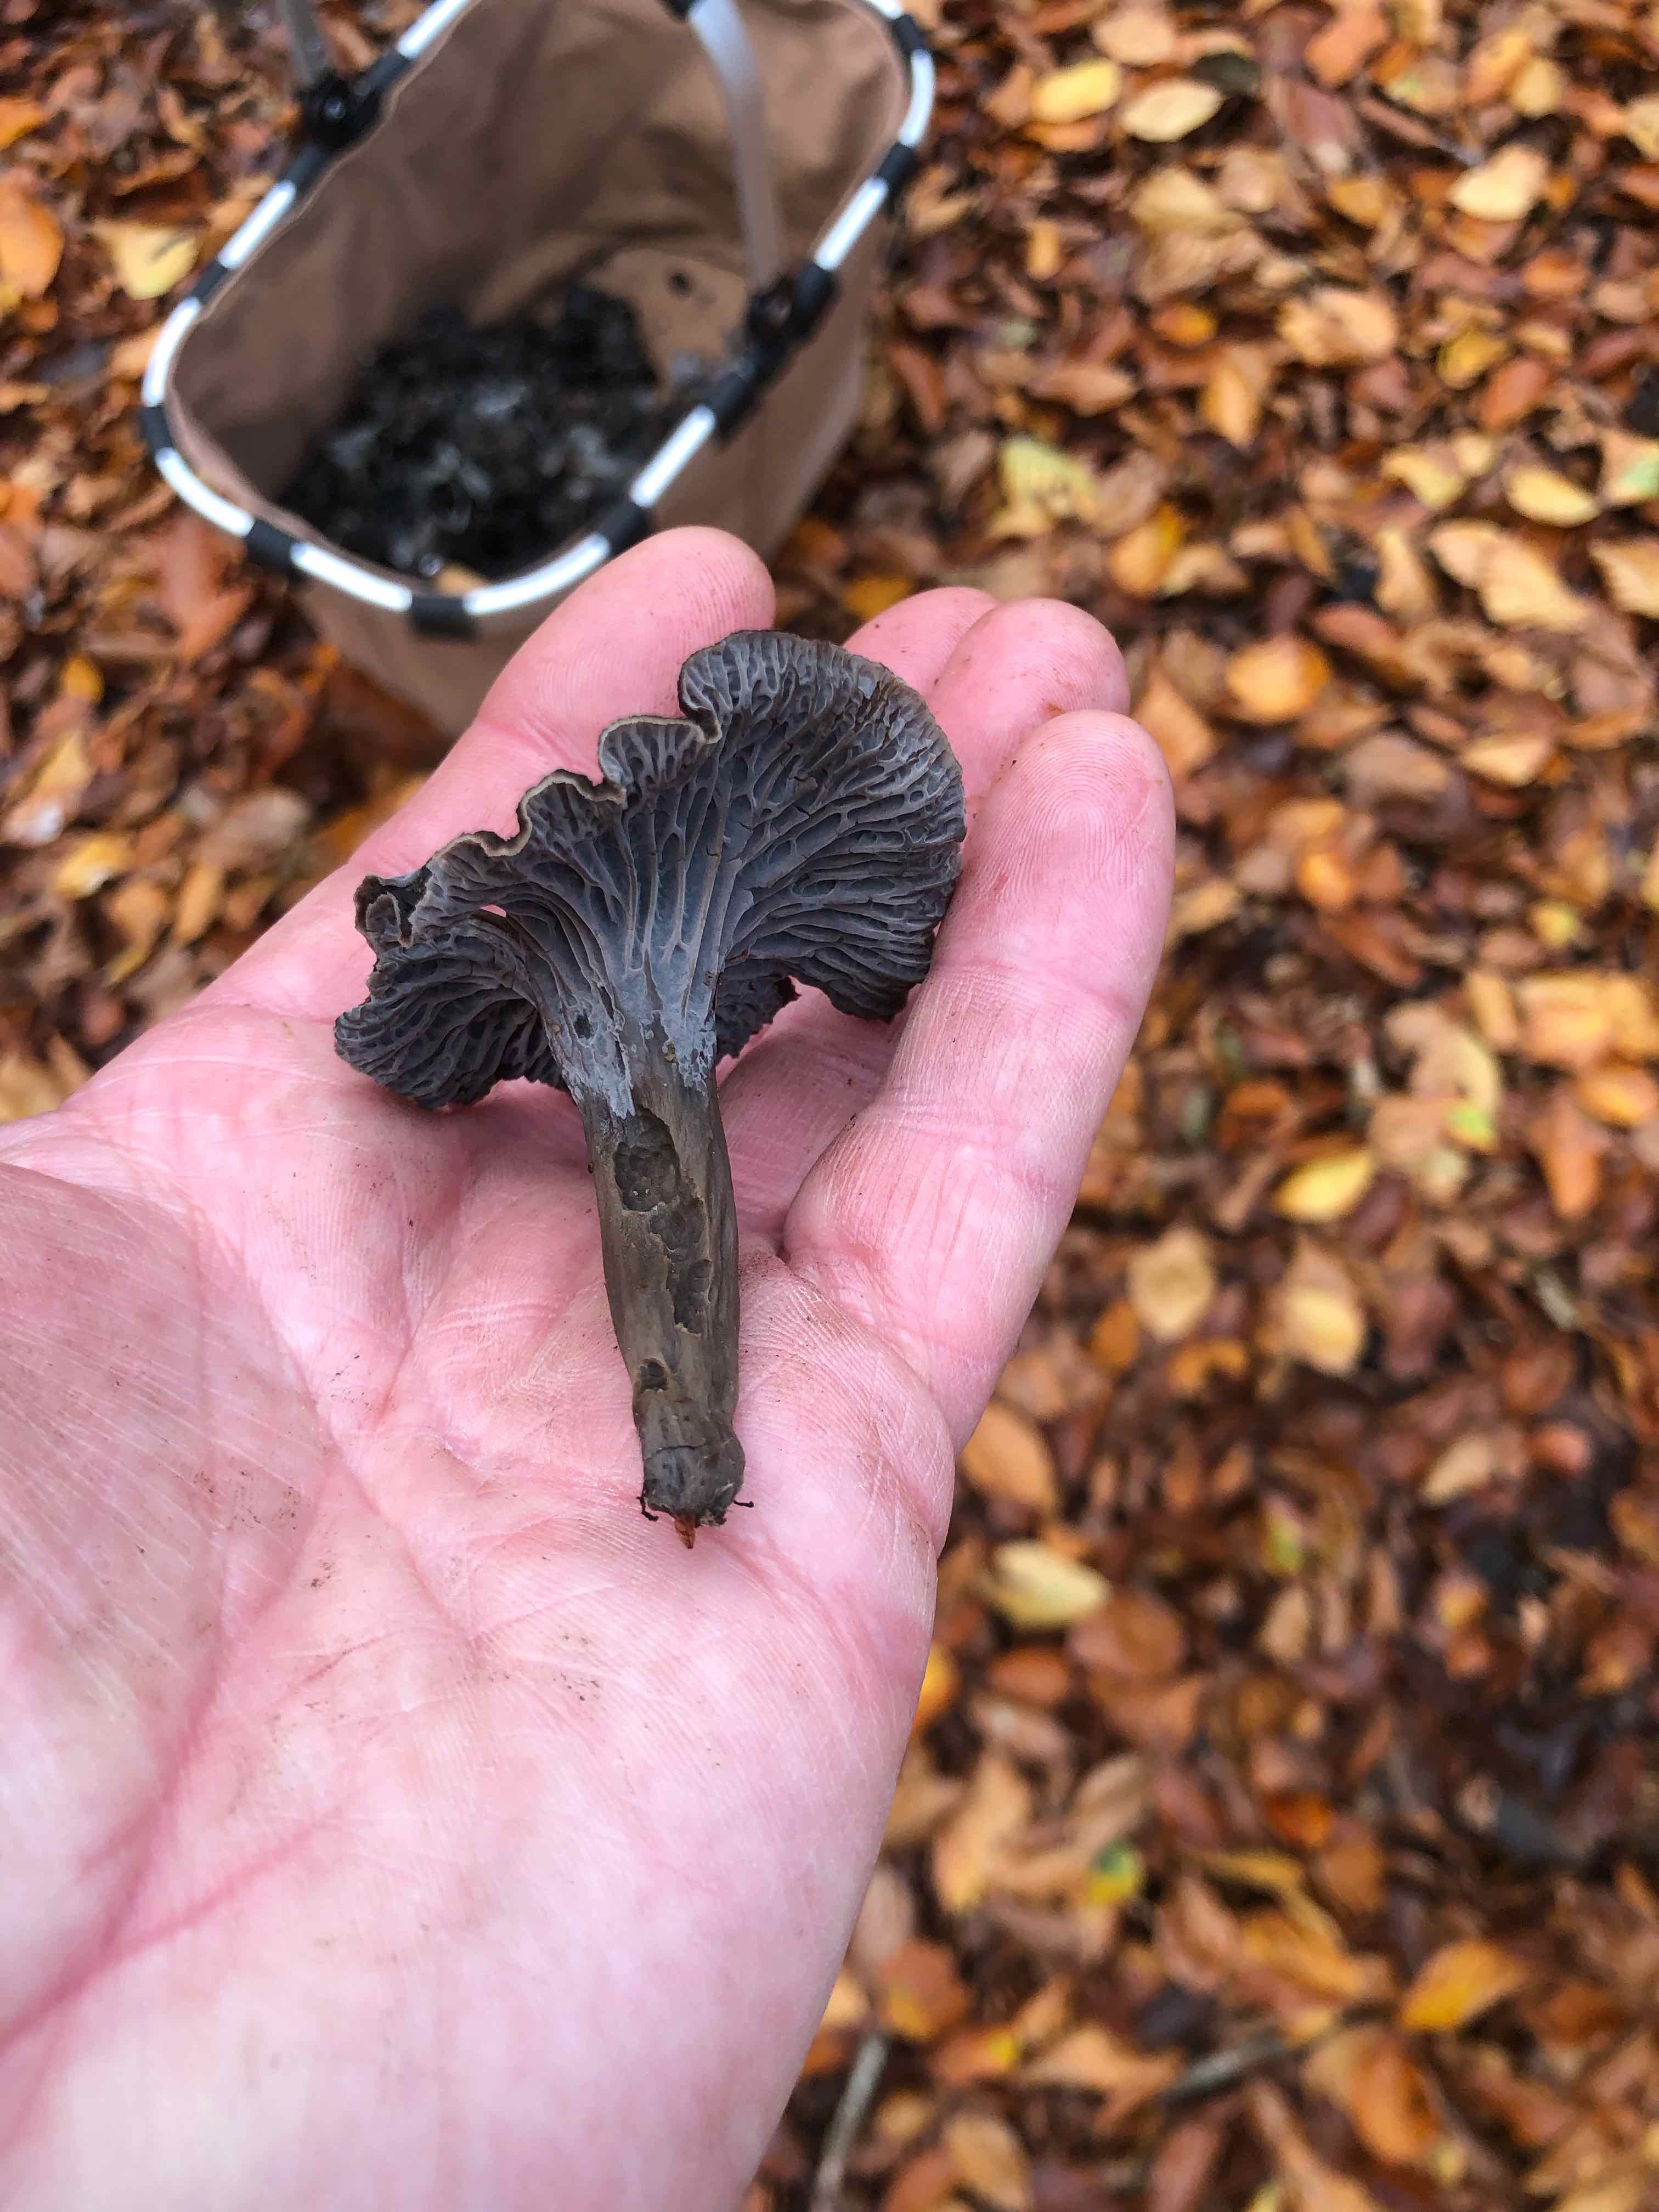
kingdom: Fungi
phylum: Basidiomycota
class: Agaricomycetes
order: Cantharellales
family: Hydnaceae
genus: Cantharellus
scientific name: Cantharellus cinereus
